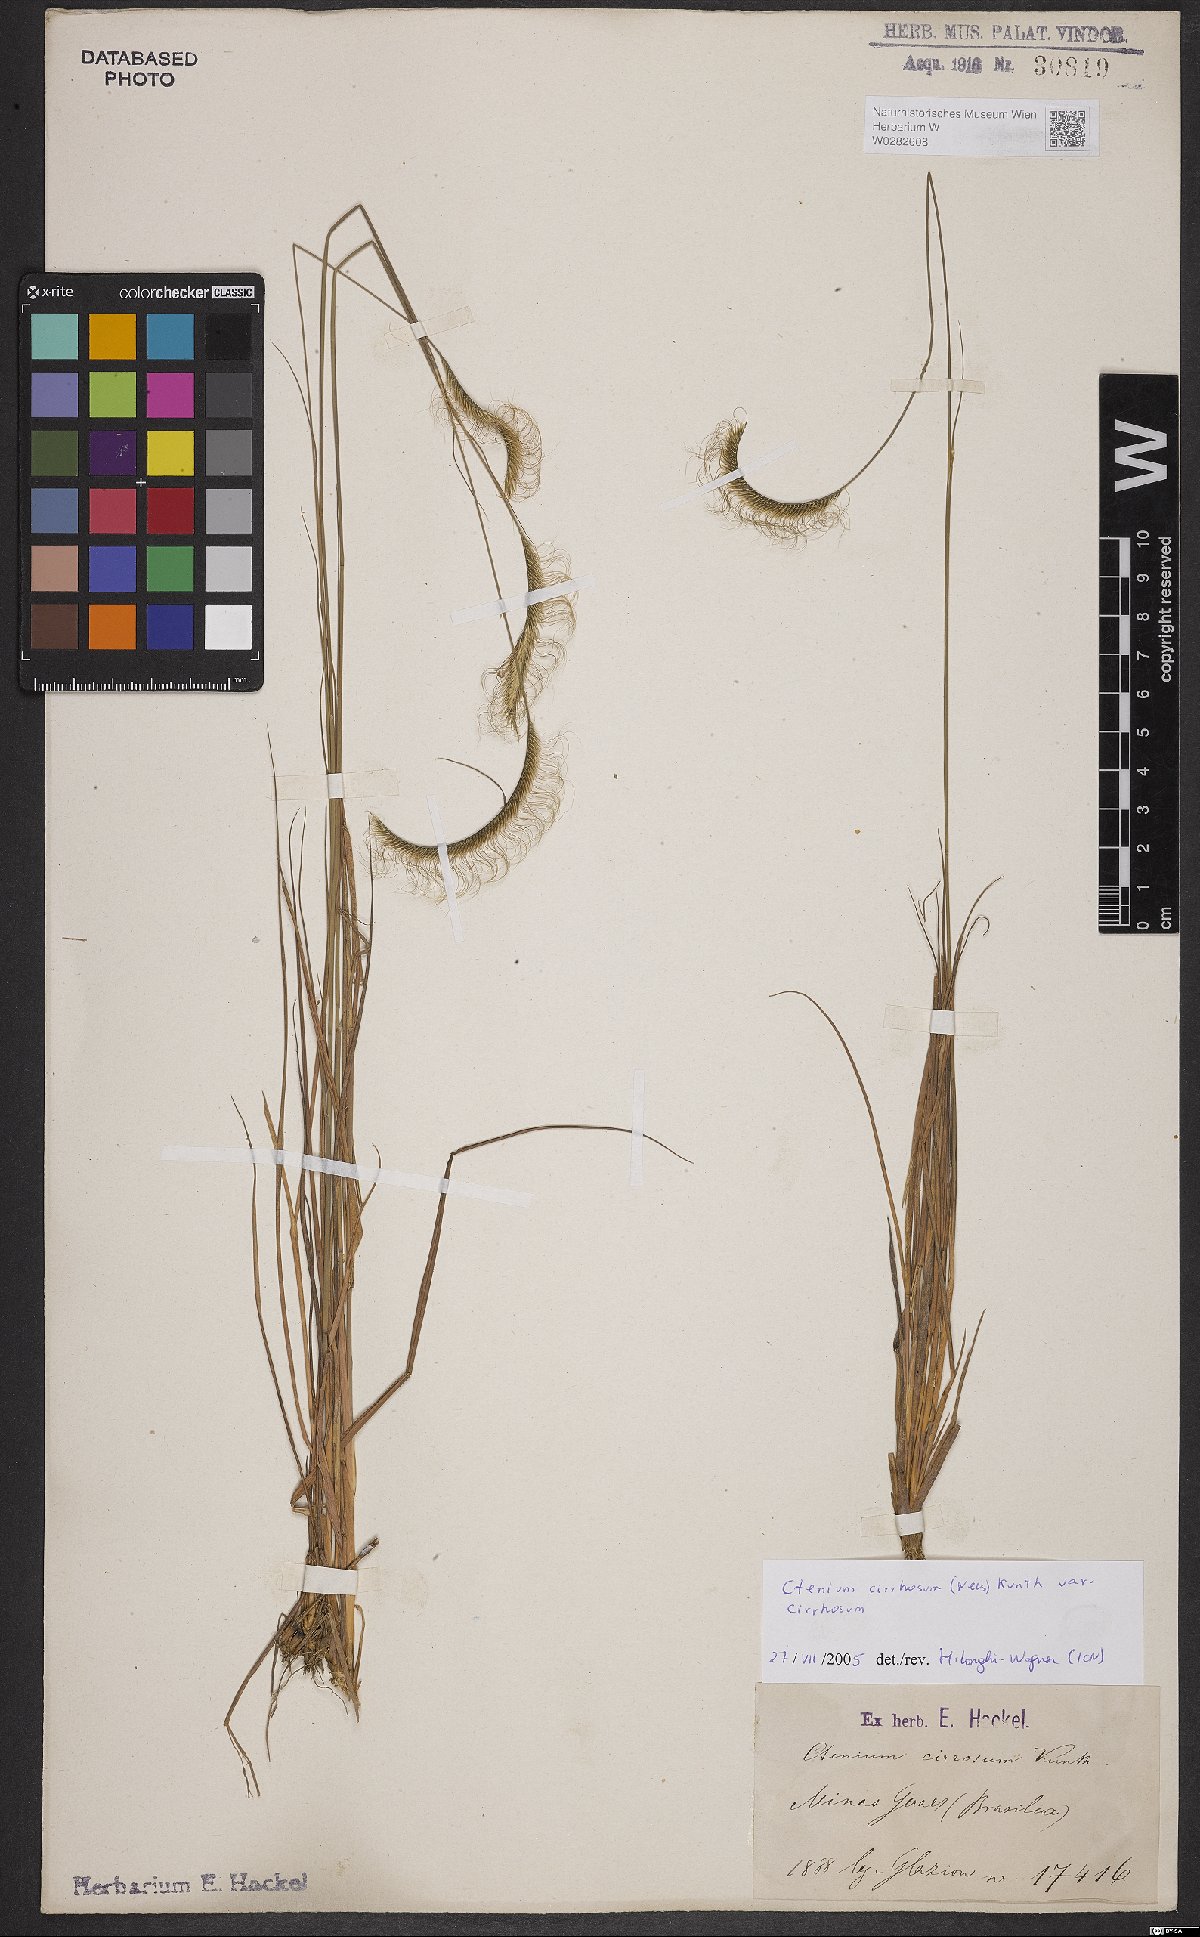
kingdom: Plantae
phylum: Tracheophyta
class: Liliopsida
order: Poales
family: Poaceae
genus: Ctenium
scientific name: Ctenium cirrhosum
